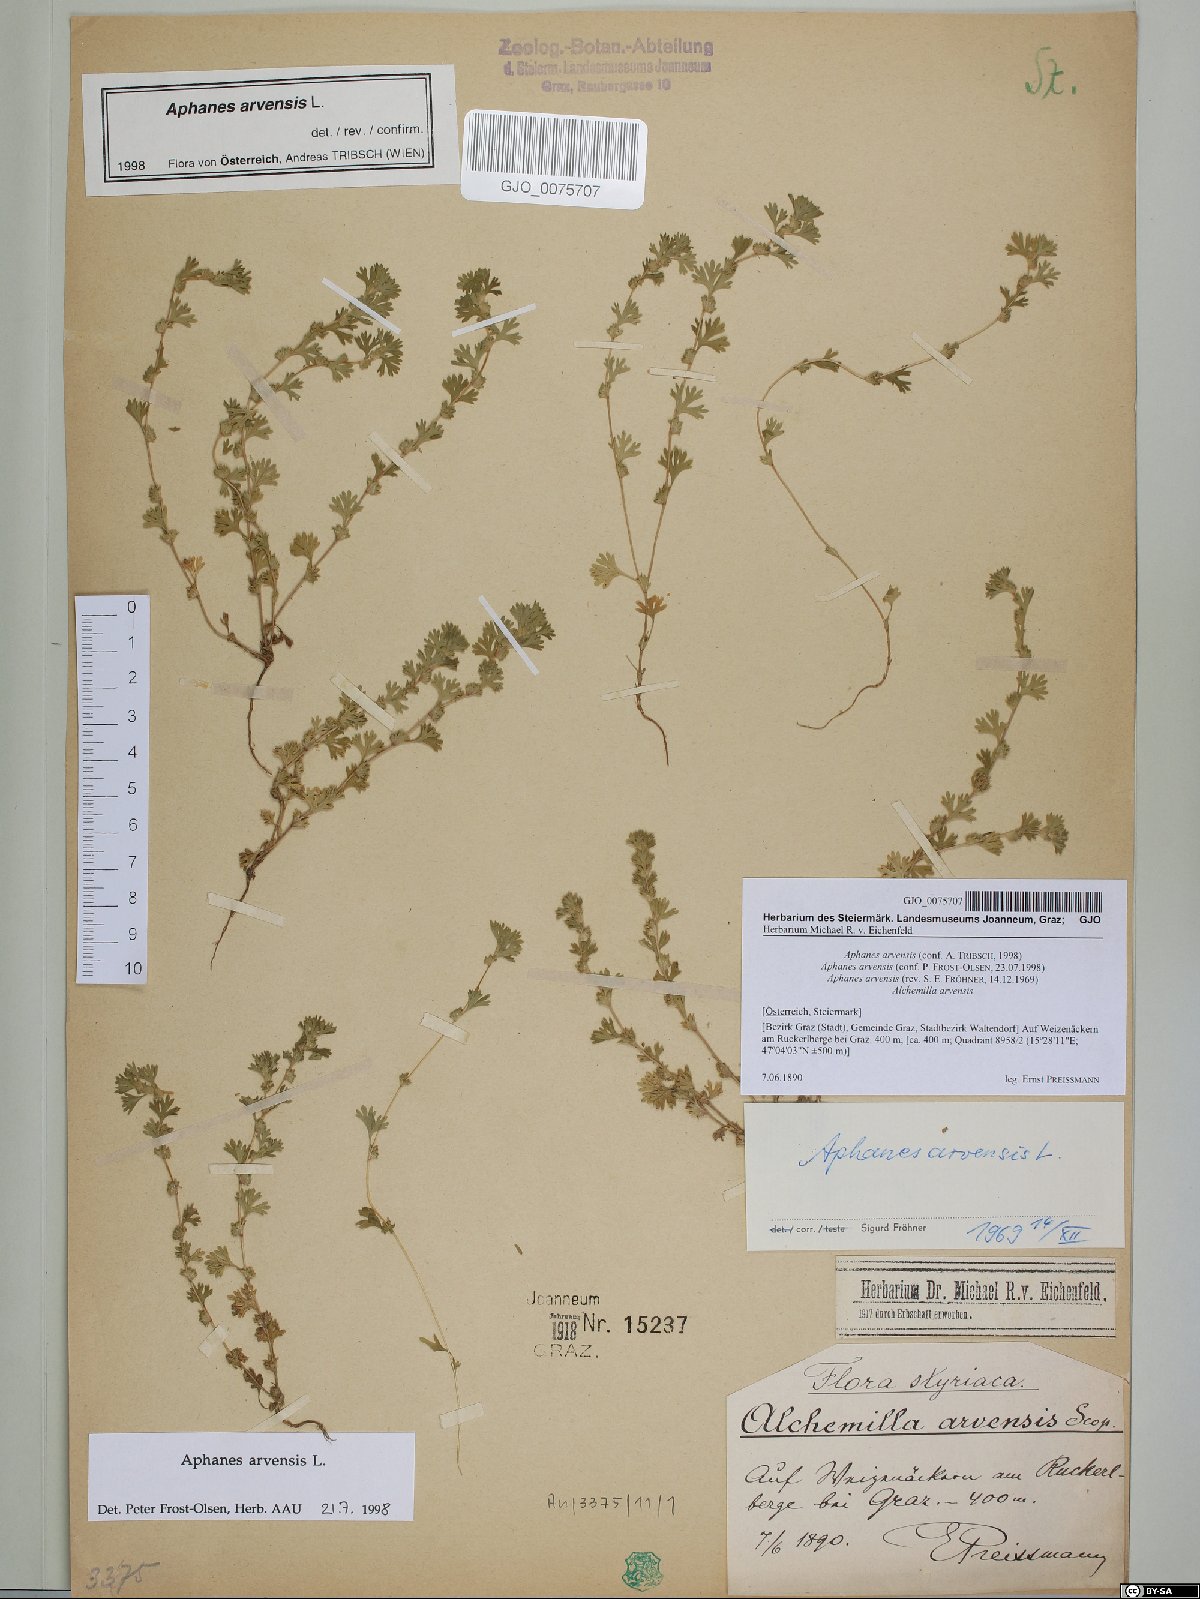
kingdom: Plantae
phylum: Tracheophyta
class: Magnoliopsida
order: Rosales
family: Rosaceae
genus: Aphanes
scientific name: Aphanes arvensis
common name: Parsley-piert
